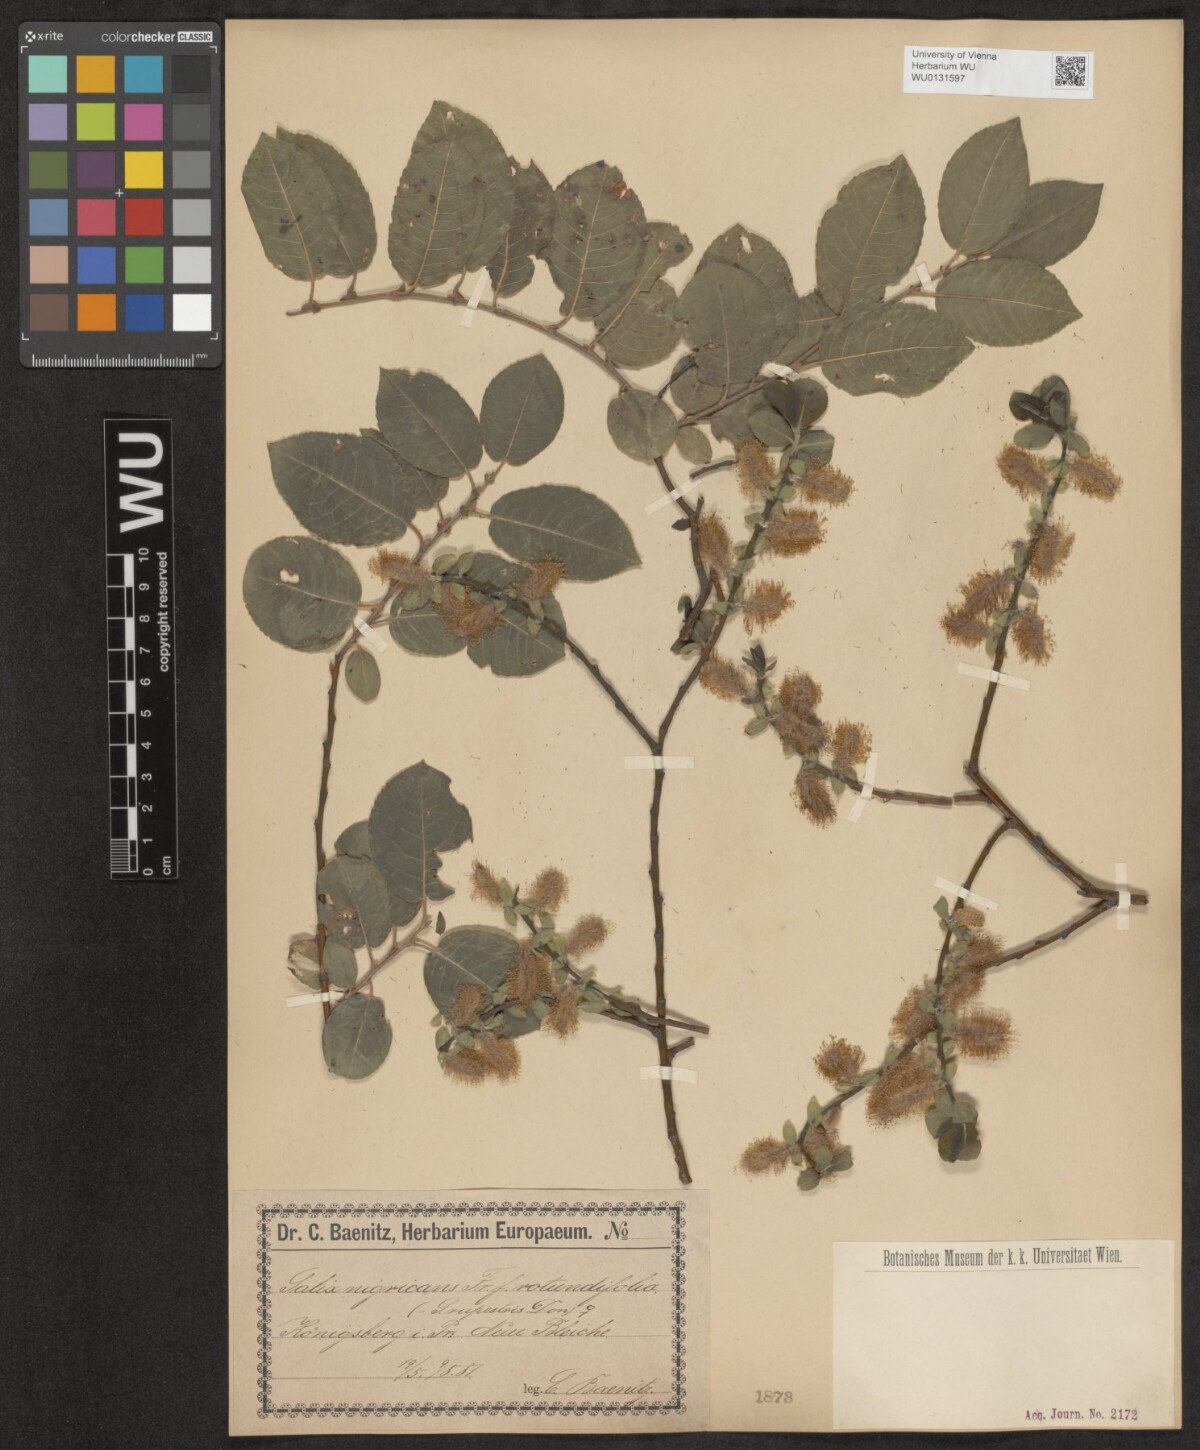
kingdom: Plantae
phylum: Tracheophyta
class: Magnoliopsida
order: Malpighiales
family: Salicaceae
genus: Salix
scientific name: Salix myrsinifolia
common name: Dark-leaved willow
